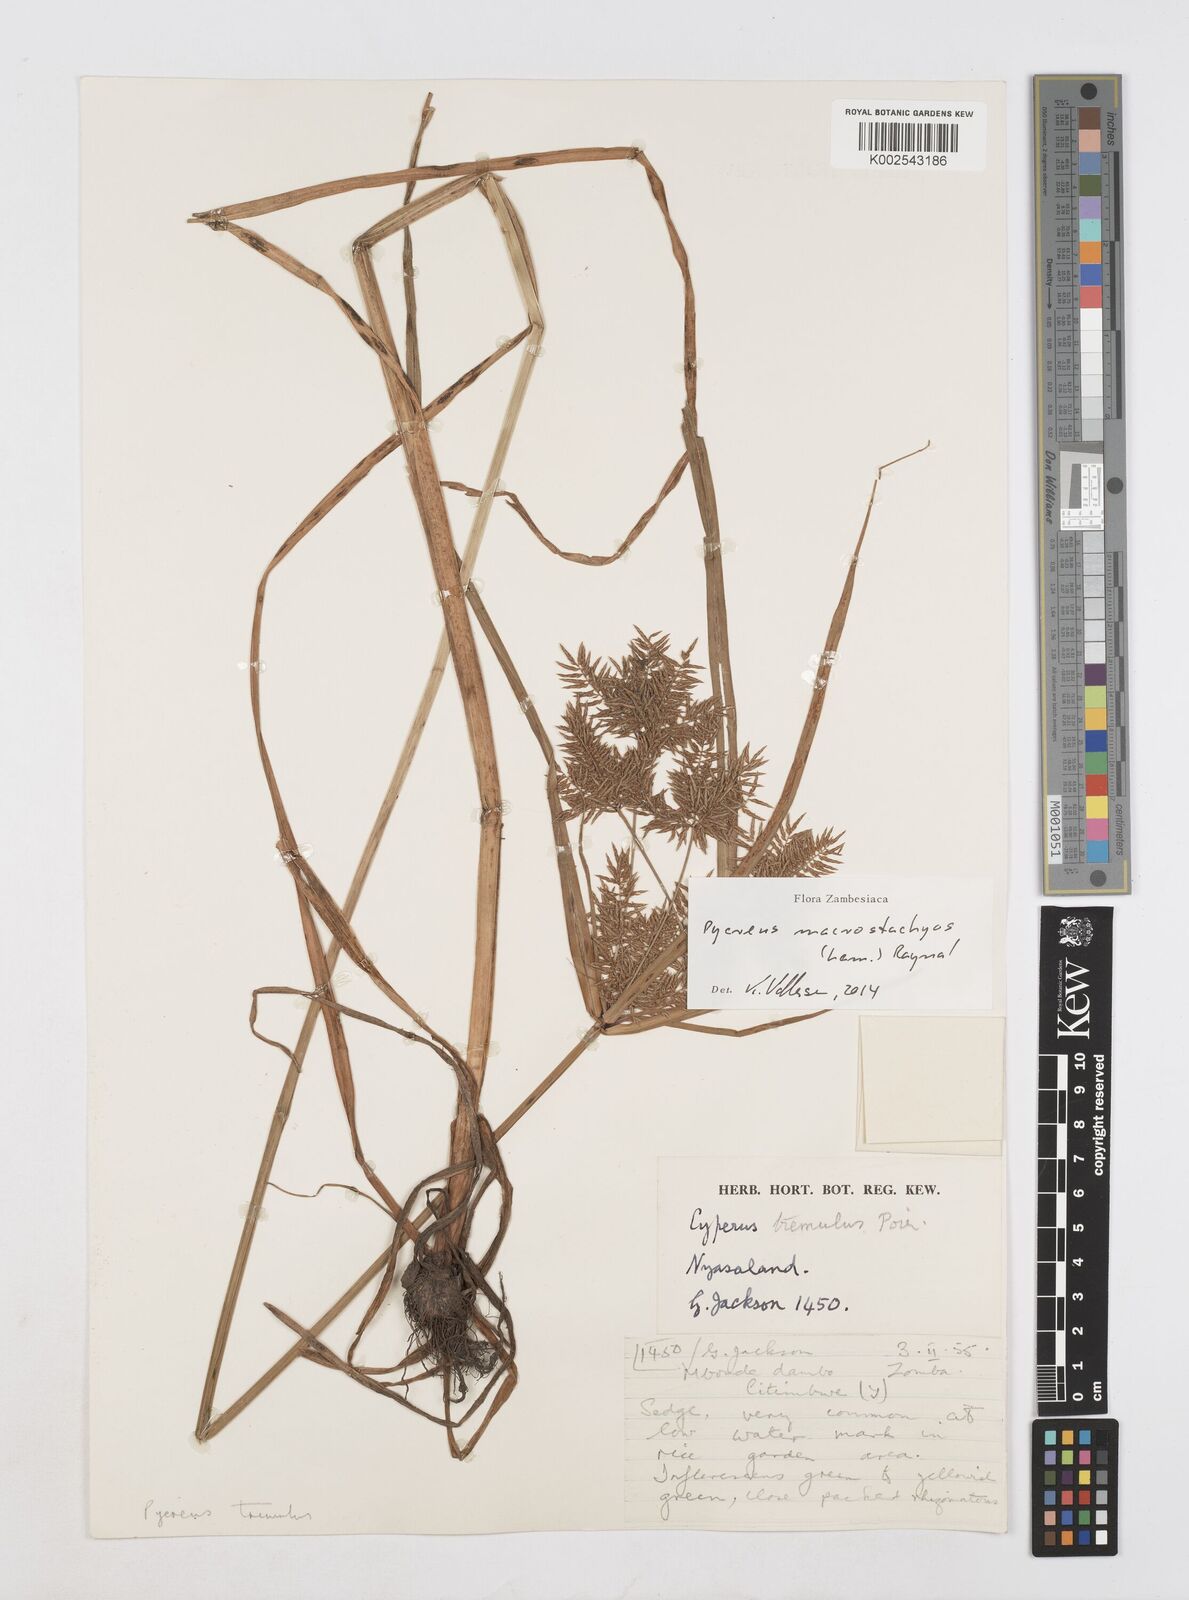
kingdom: Plantae
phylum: Tracheophyta
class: Liliopsida
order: Poales
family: Cyperaceae
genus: Cyperus
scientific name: Cyperus macrostachyos
